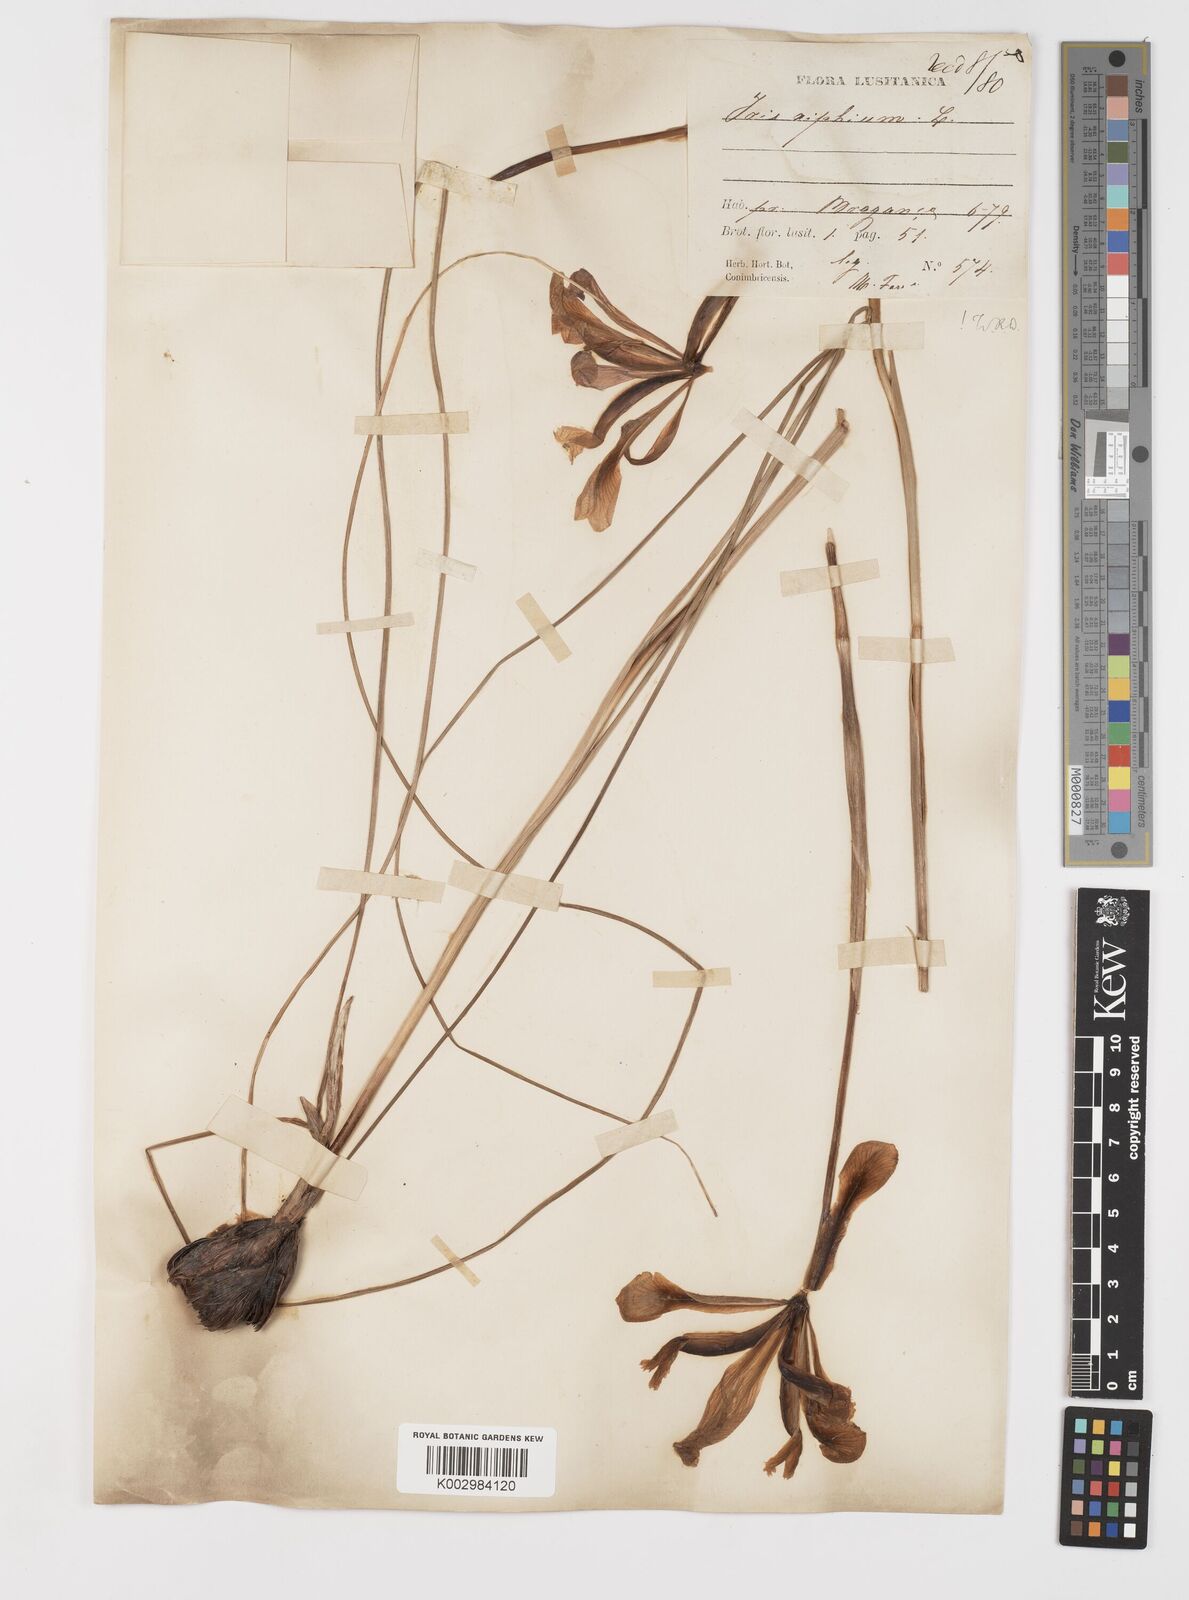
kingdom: Plantae
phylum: Tracheophyta
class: Liliopsida
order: Asparagales
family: Iridaceae
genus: Iris
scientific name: Iris xiphium
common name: Spanish iris
